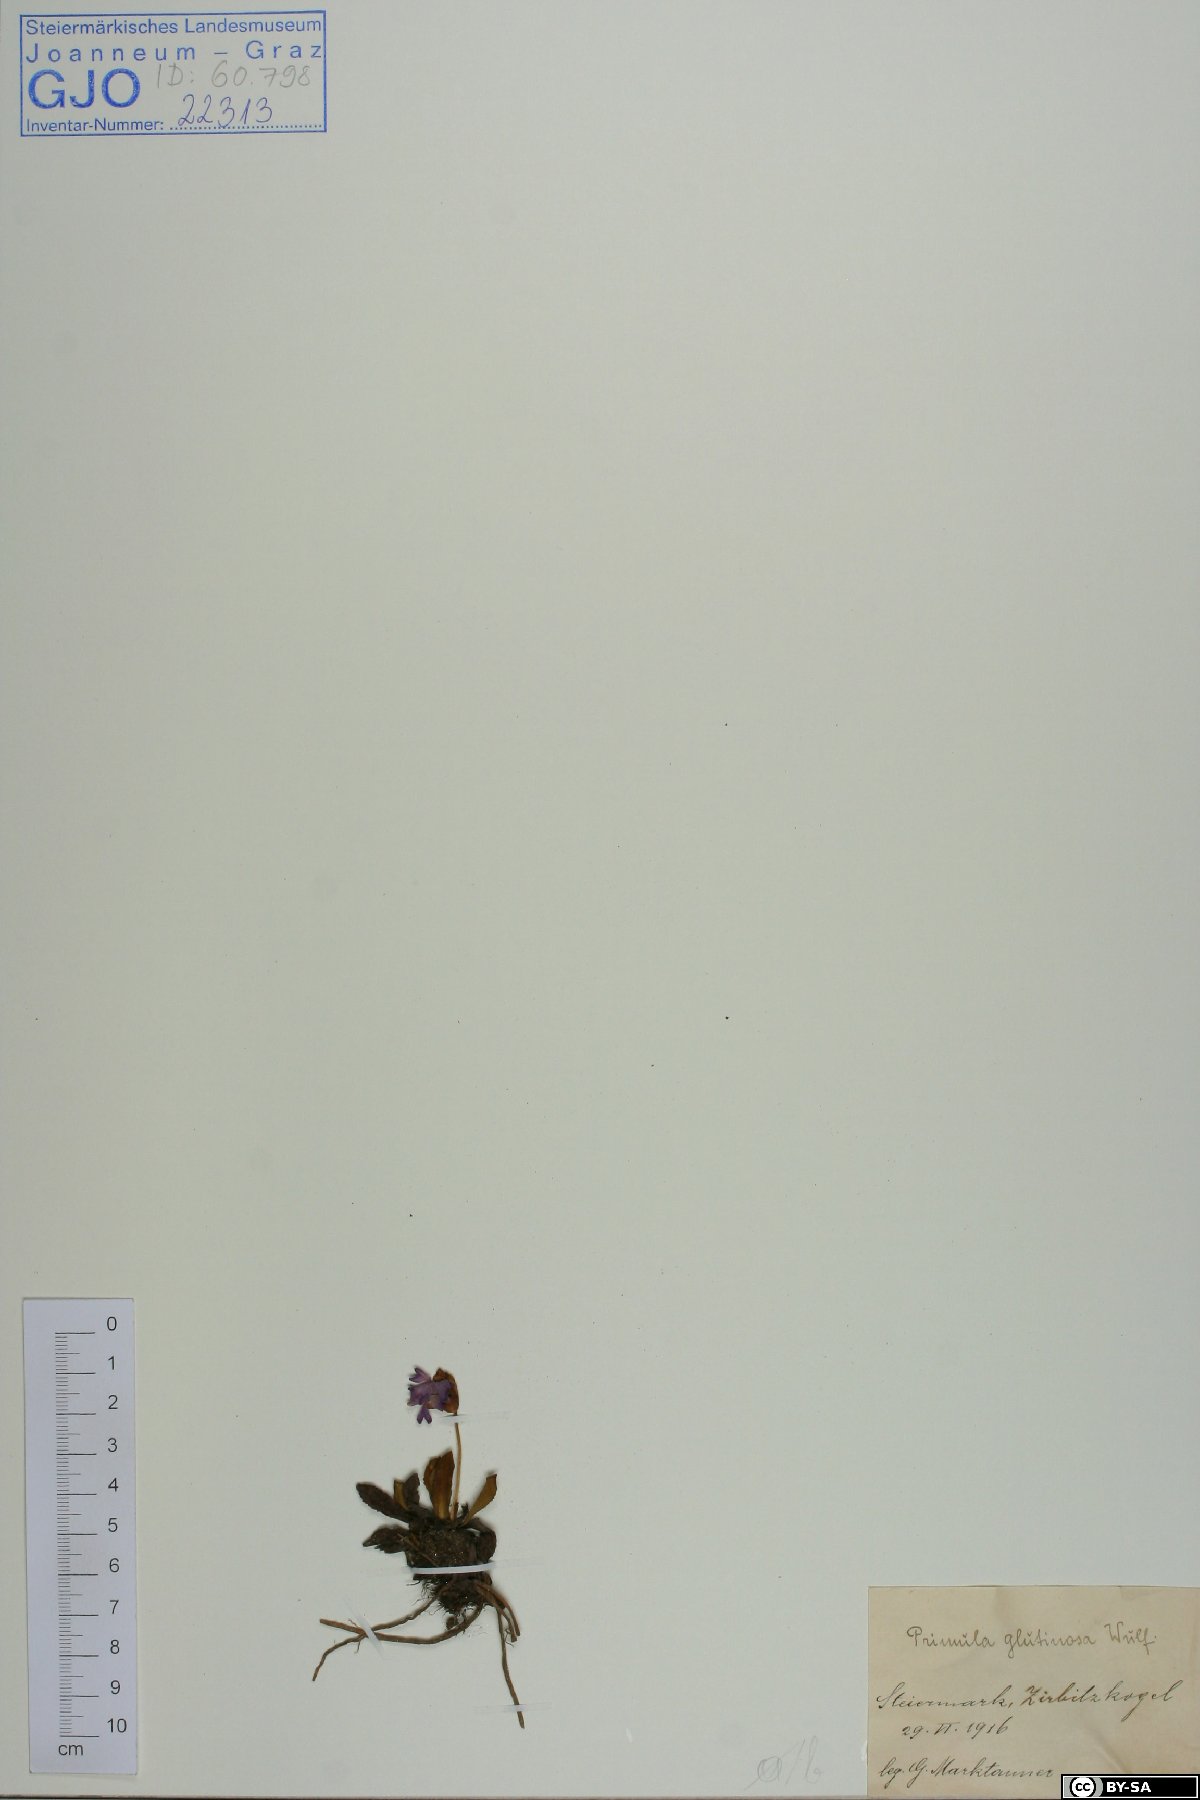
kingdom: Plantae
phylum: Tracheophyta
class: Magnoliopsida
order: Ericales
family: Primulaceae
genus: Primula
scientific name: Primula glutinosa
